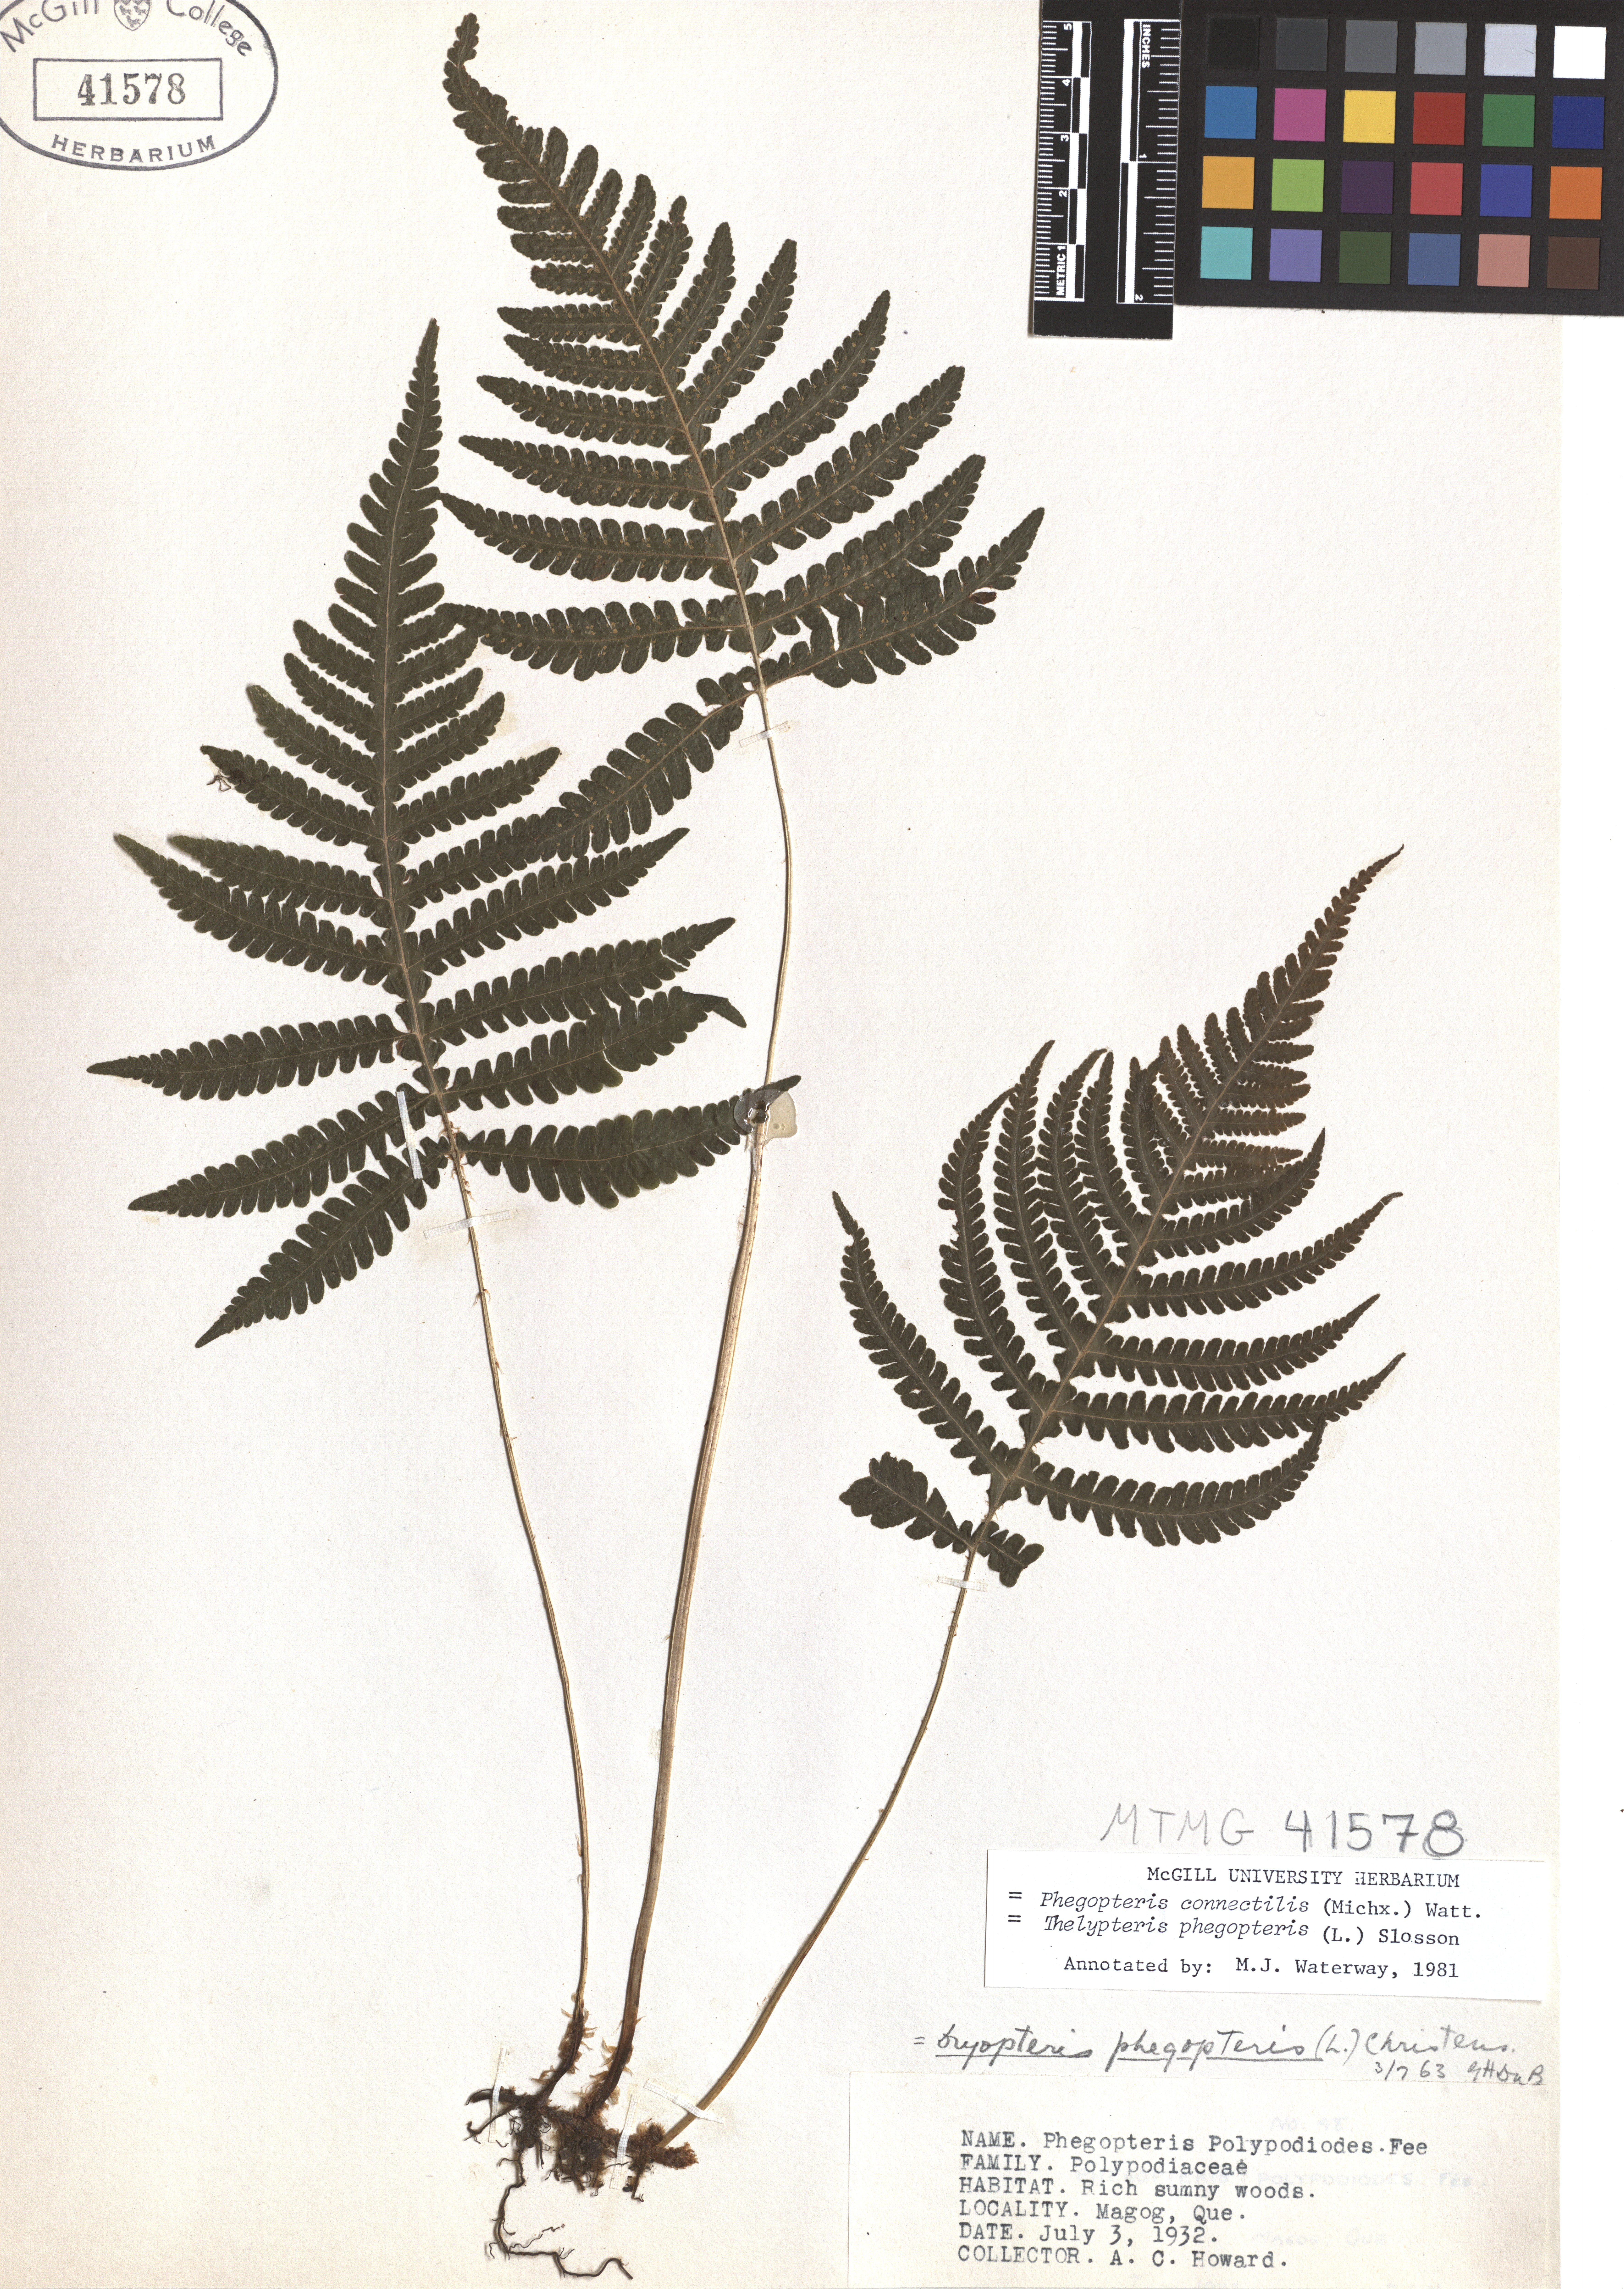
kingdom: Plantae
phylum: Tracheophyta
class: Polypodiopsida
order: Polypodiales
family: Thelypteridaceae
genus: Phegopteris
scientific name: Phegopteris connectilis
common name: Beech fern
